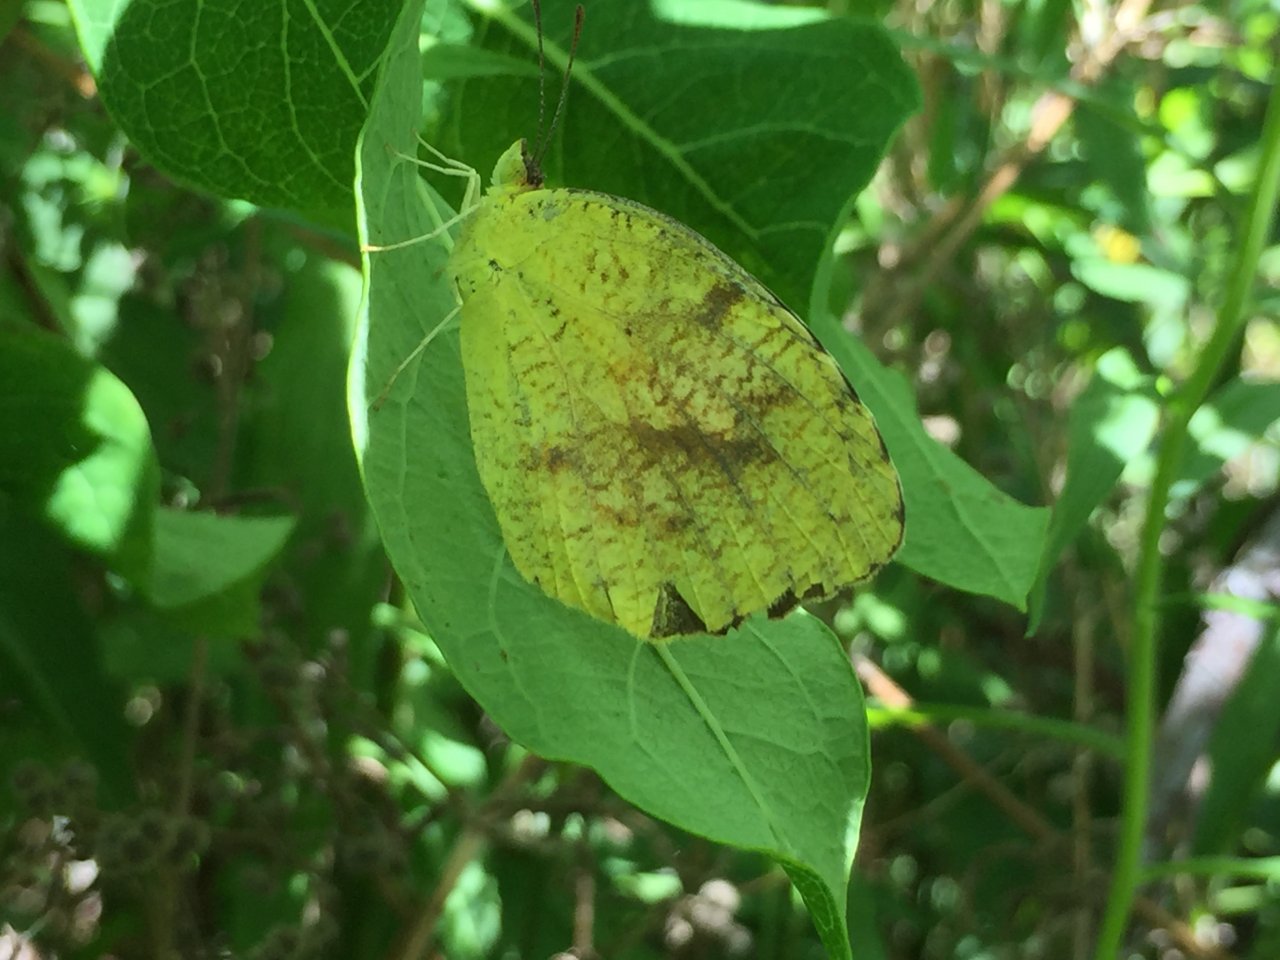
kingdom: Animalia
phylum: Arthropoda
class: Insecta
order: Lepidoptera
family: Pieridae
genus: Abaeis
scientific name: Abaeis nicippe
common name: Sleepy Orange
